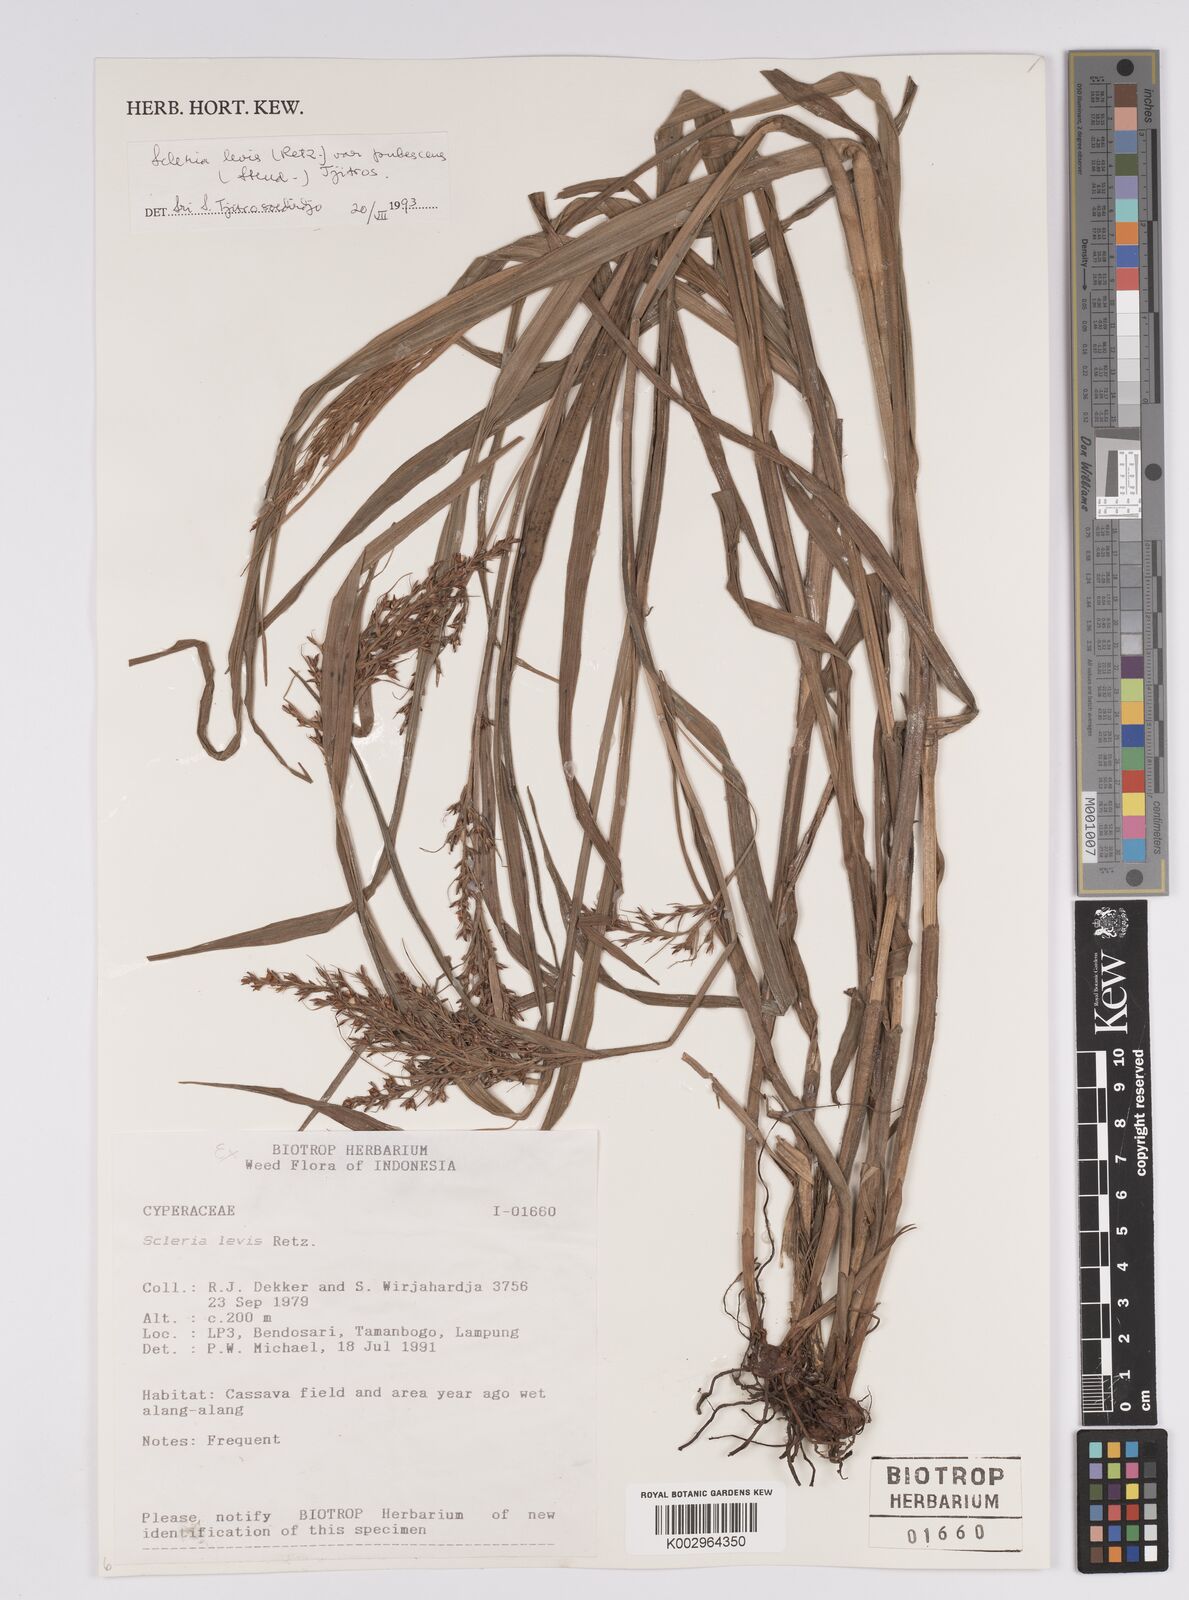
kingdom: Plantae
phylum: Tracheophyta
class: Liliopsida
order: Poales
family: Cyperaceae
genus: Scleria
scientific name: Scleria levis
